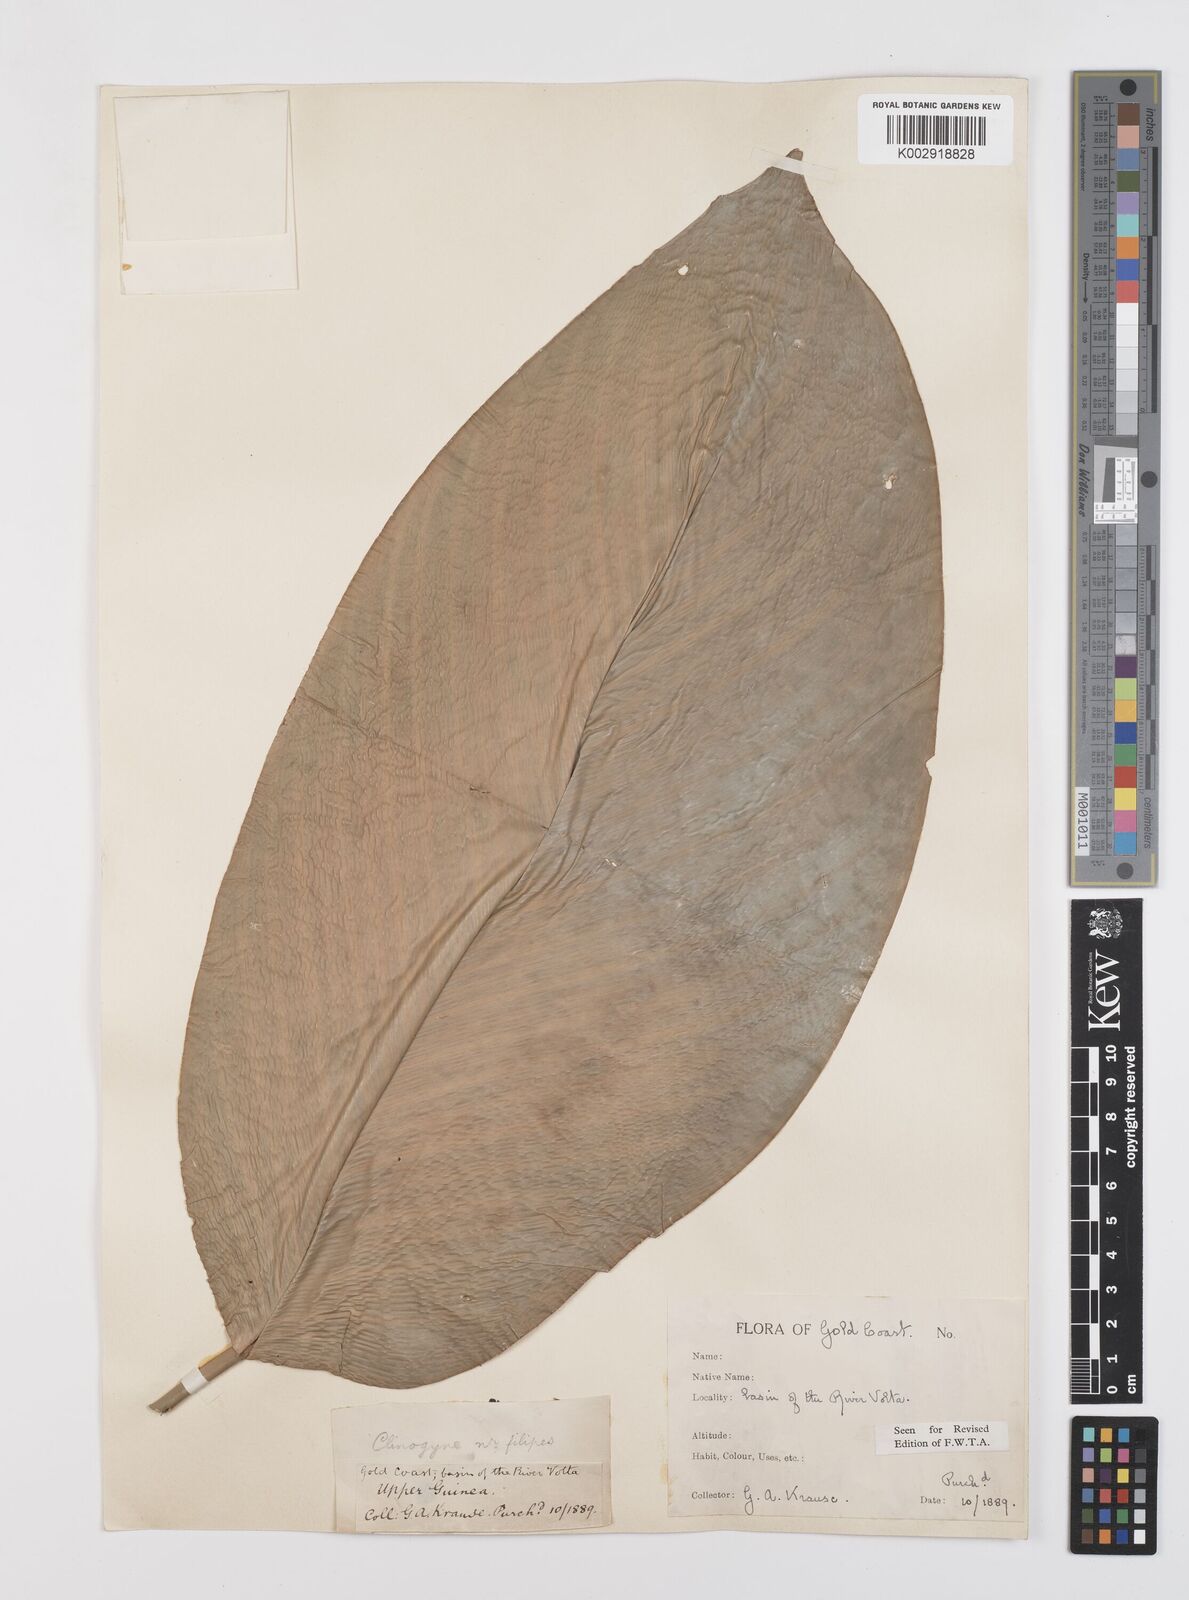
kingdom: Plantae
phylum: Tracheophyta
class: Liliopsida
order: Zingiberales
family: Marantaceae
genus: Thaumatococcus
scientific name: Thaumatococcus daniellii
